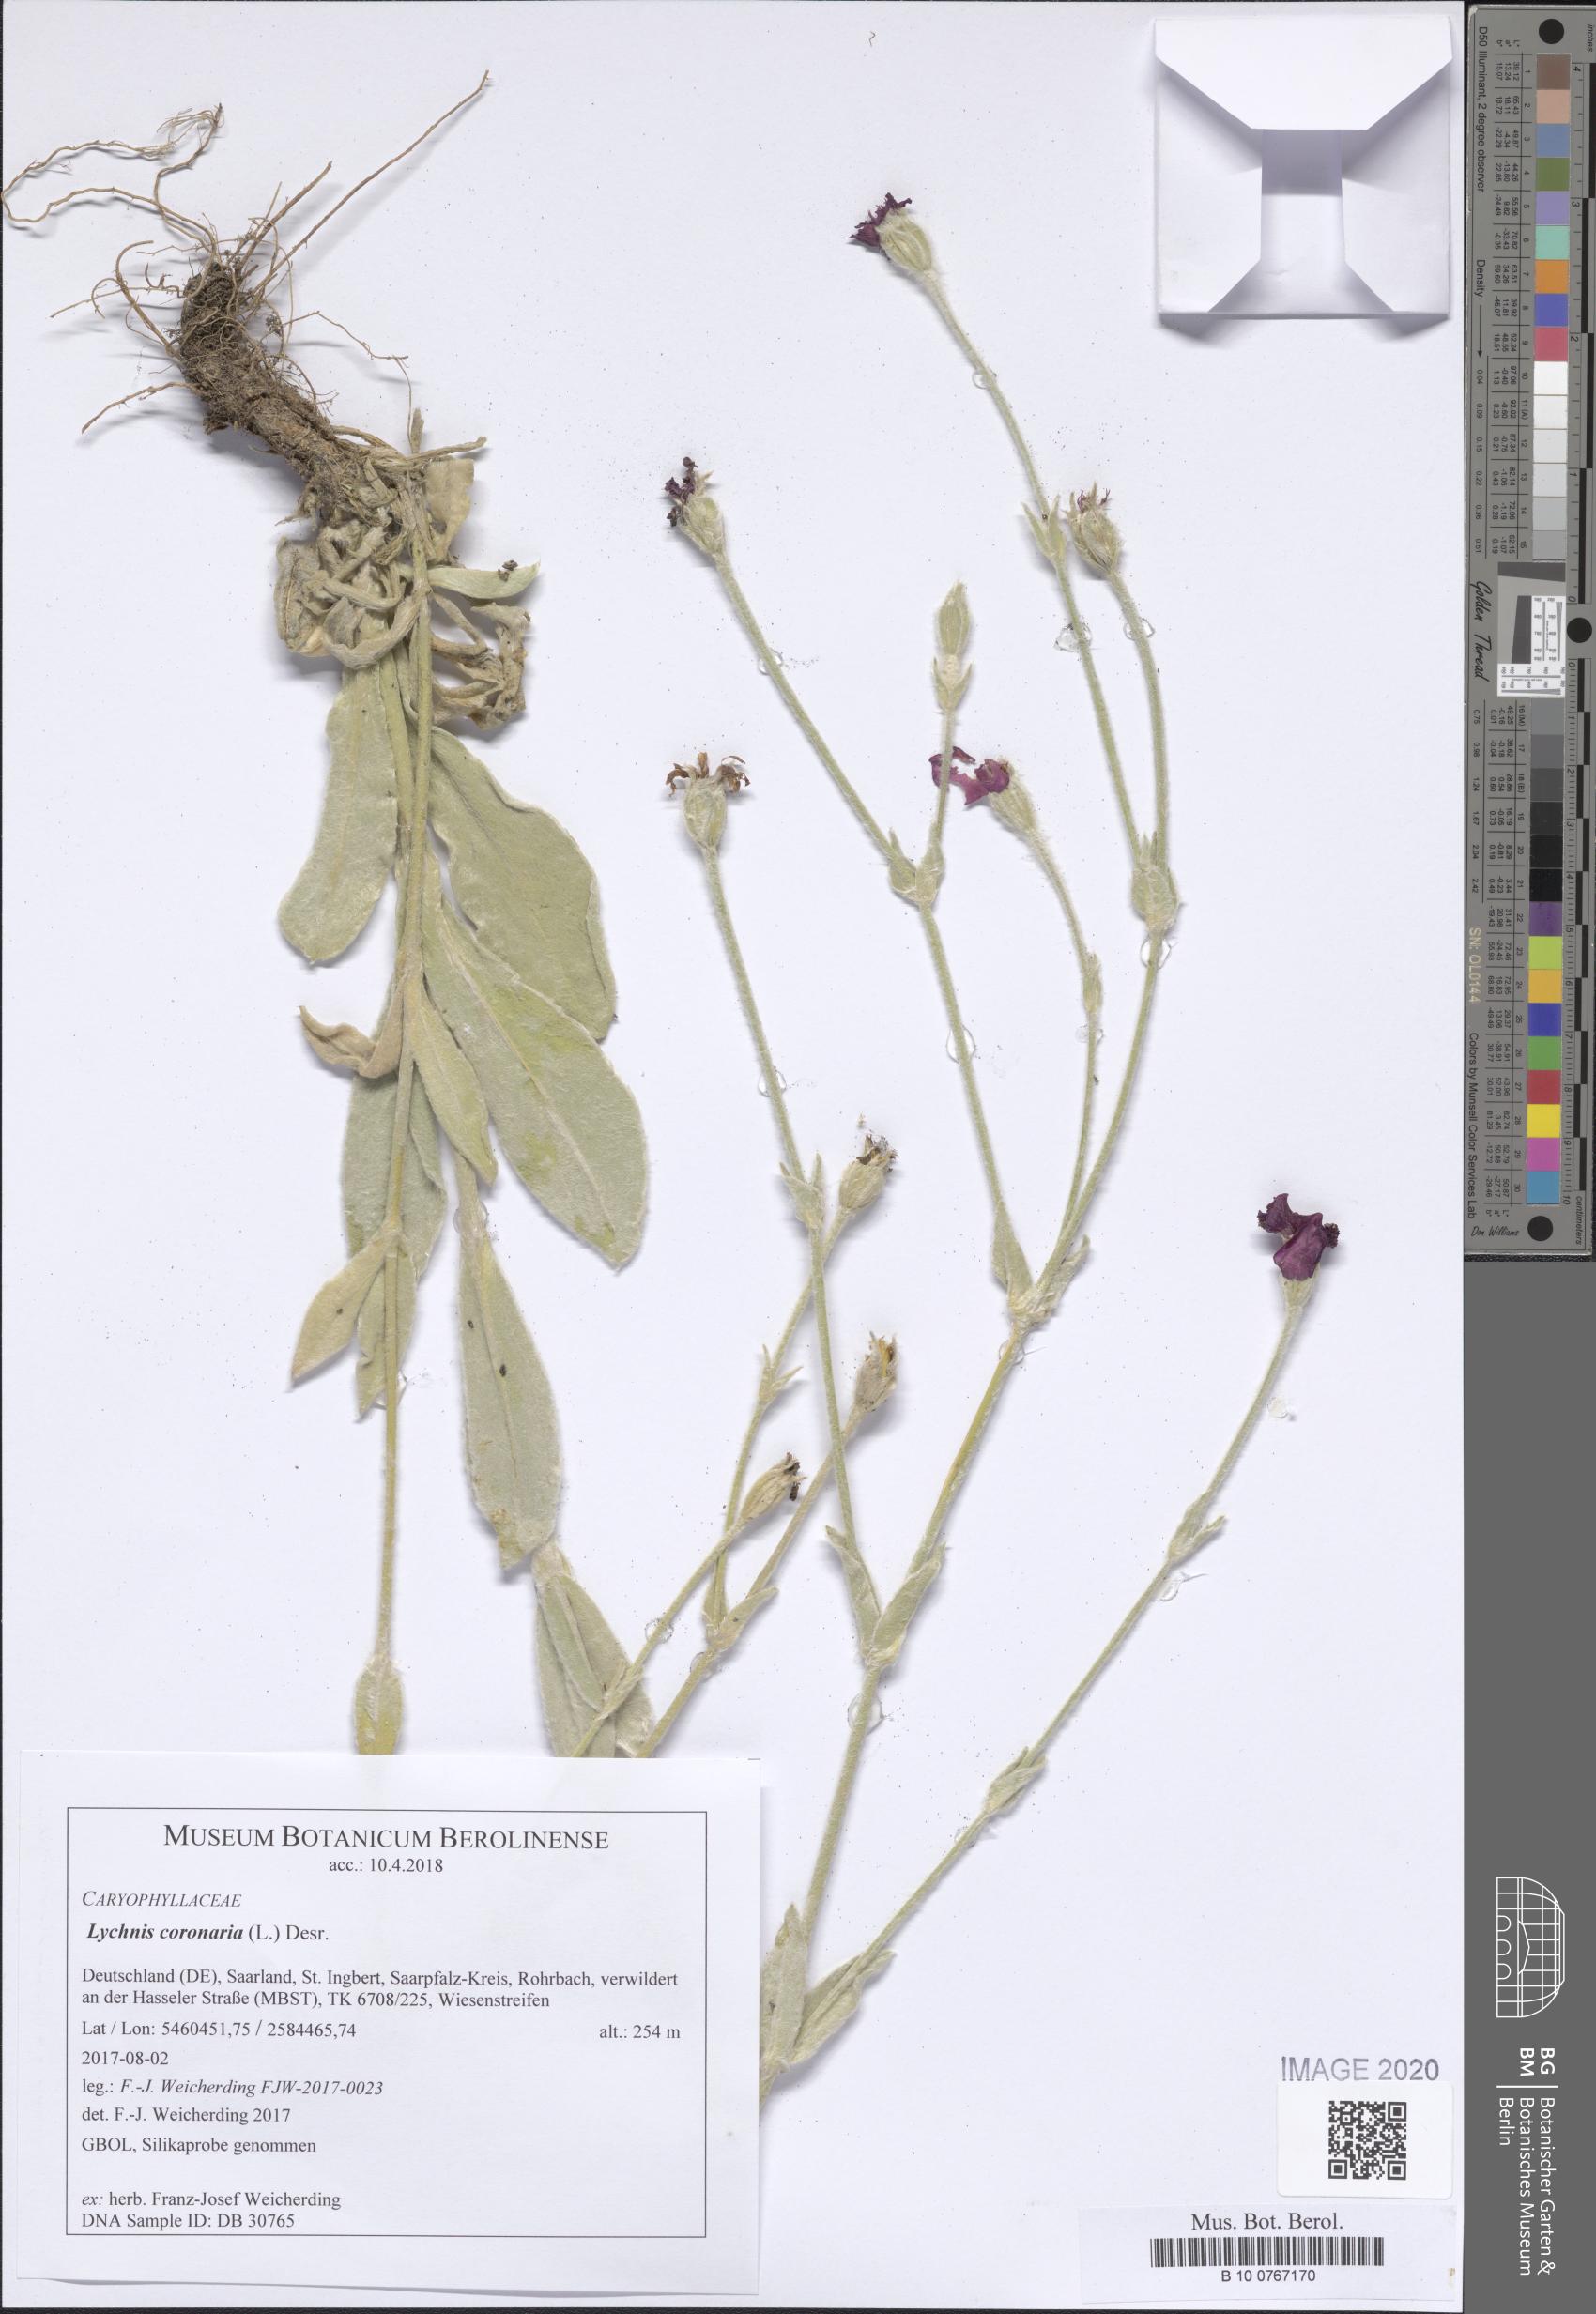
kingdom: Plantae
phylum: Tracheophyta
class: Magnoliopsida
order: Caryophyllales
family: Caryophyllaceae
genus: Silene
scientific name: Silene coronaria
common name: Rose campion
